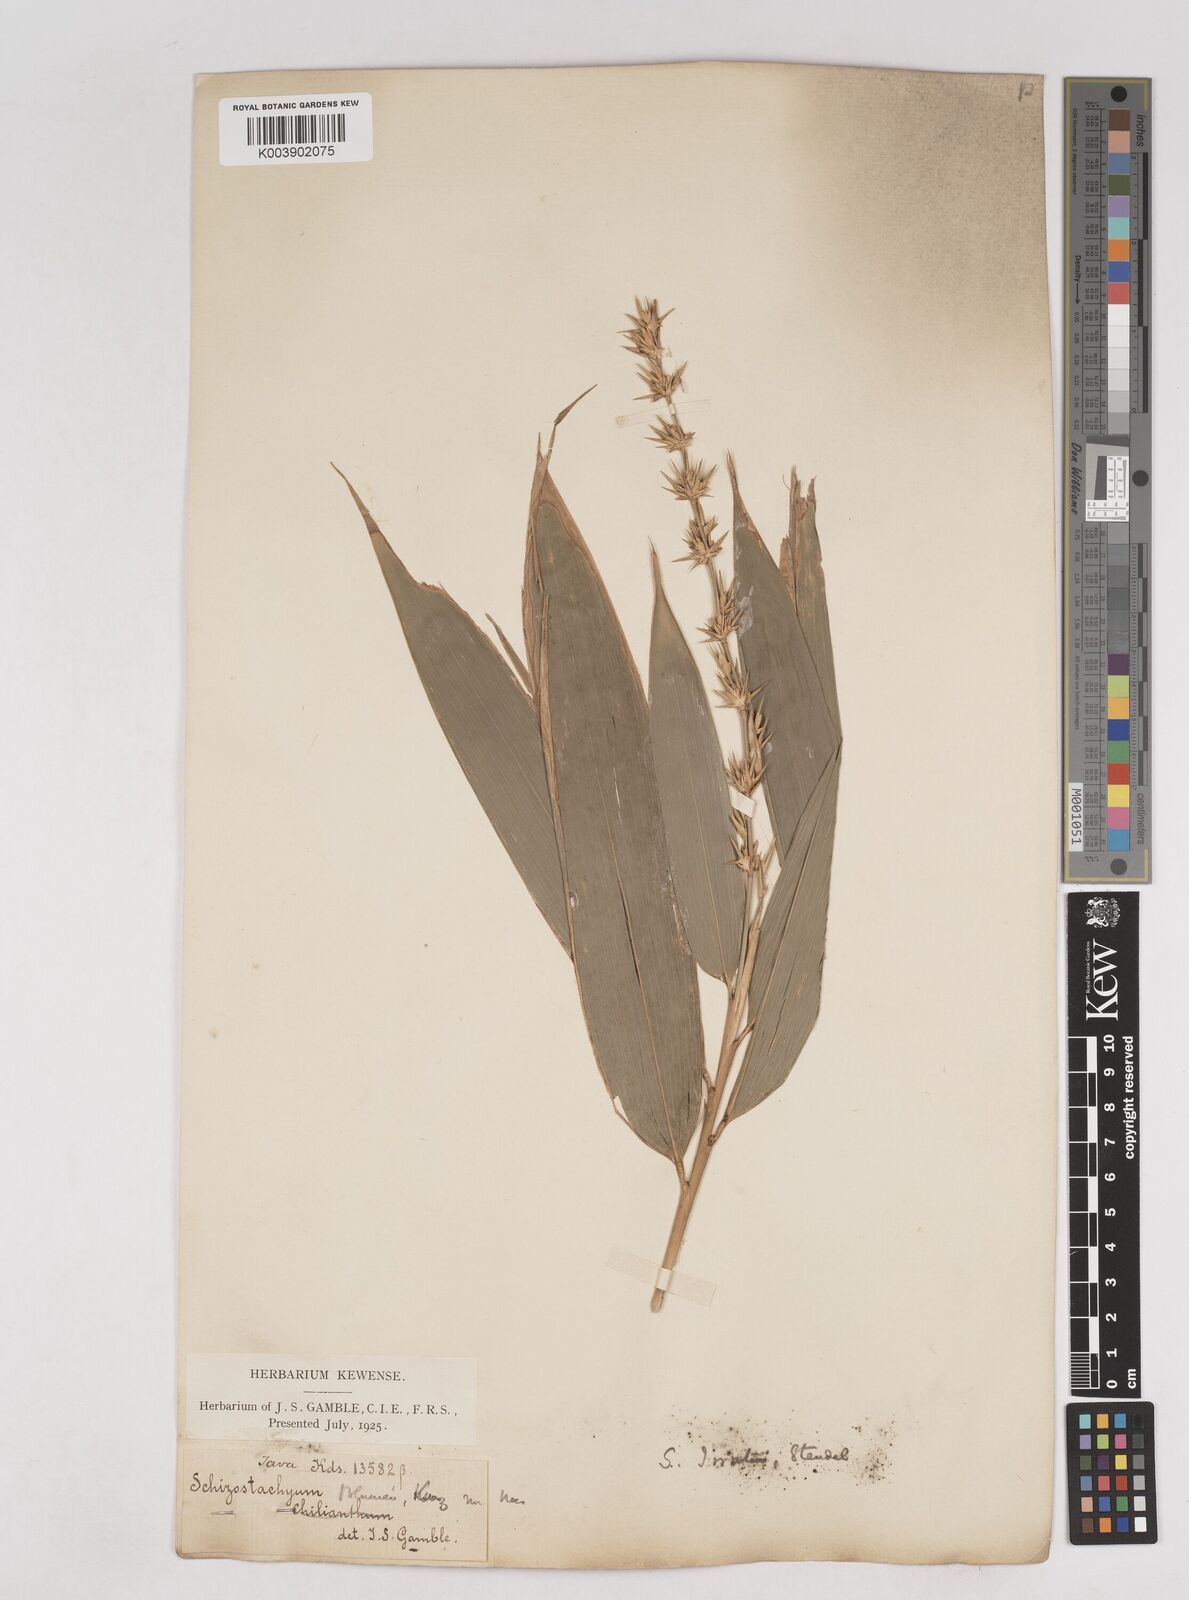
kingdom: Plantae
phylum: Tracheophyta
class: Liliopsida
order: Poales
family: Poaceae
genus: Schizostachyum
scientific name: Schizostachyum iraten
